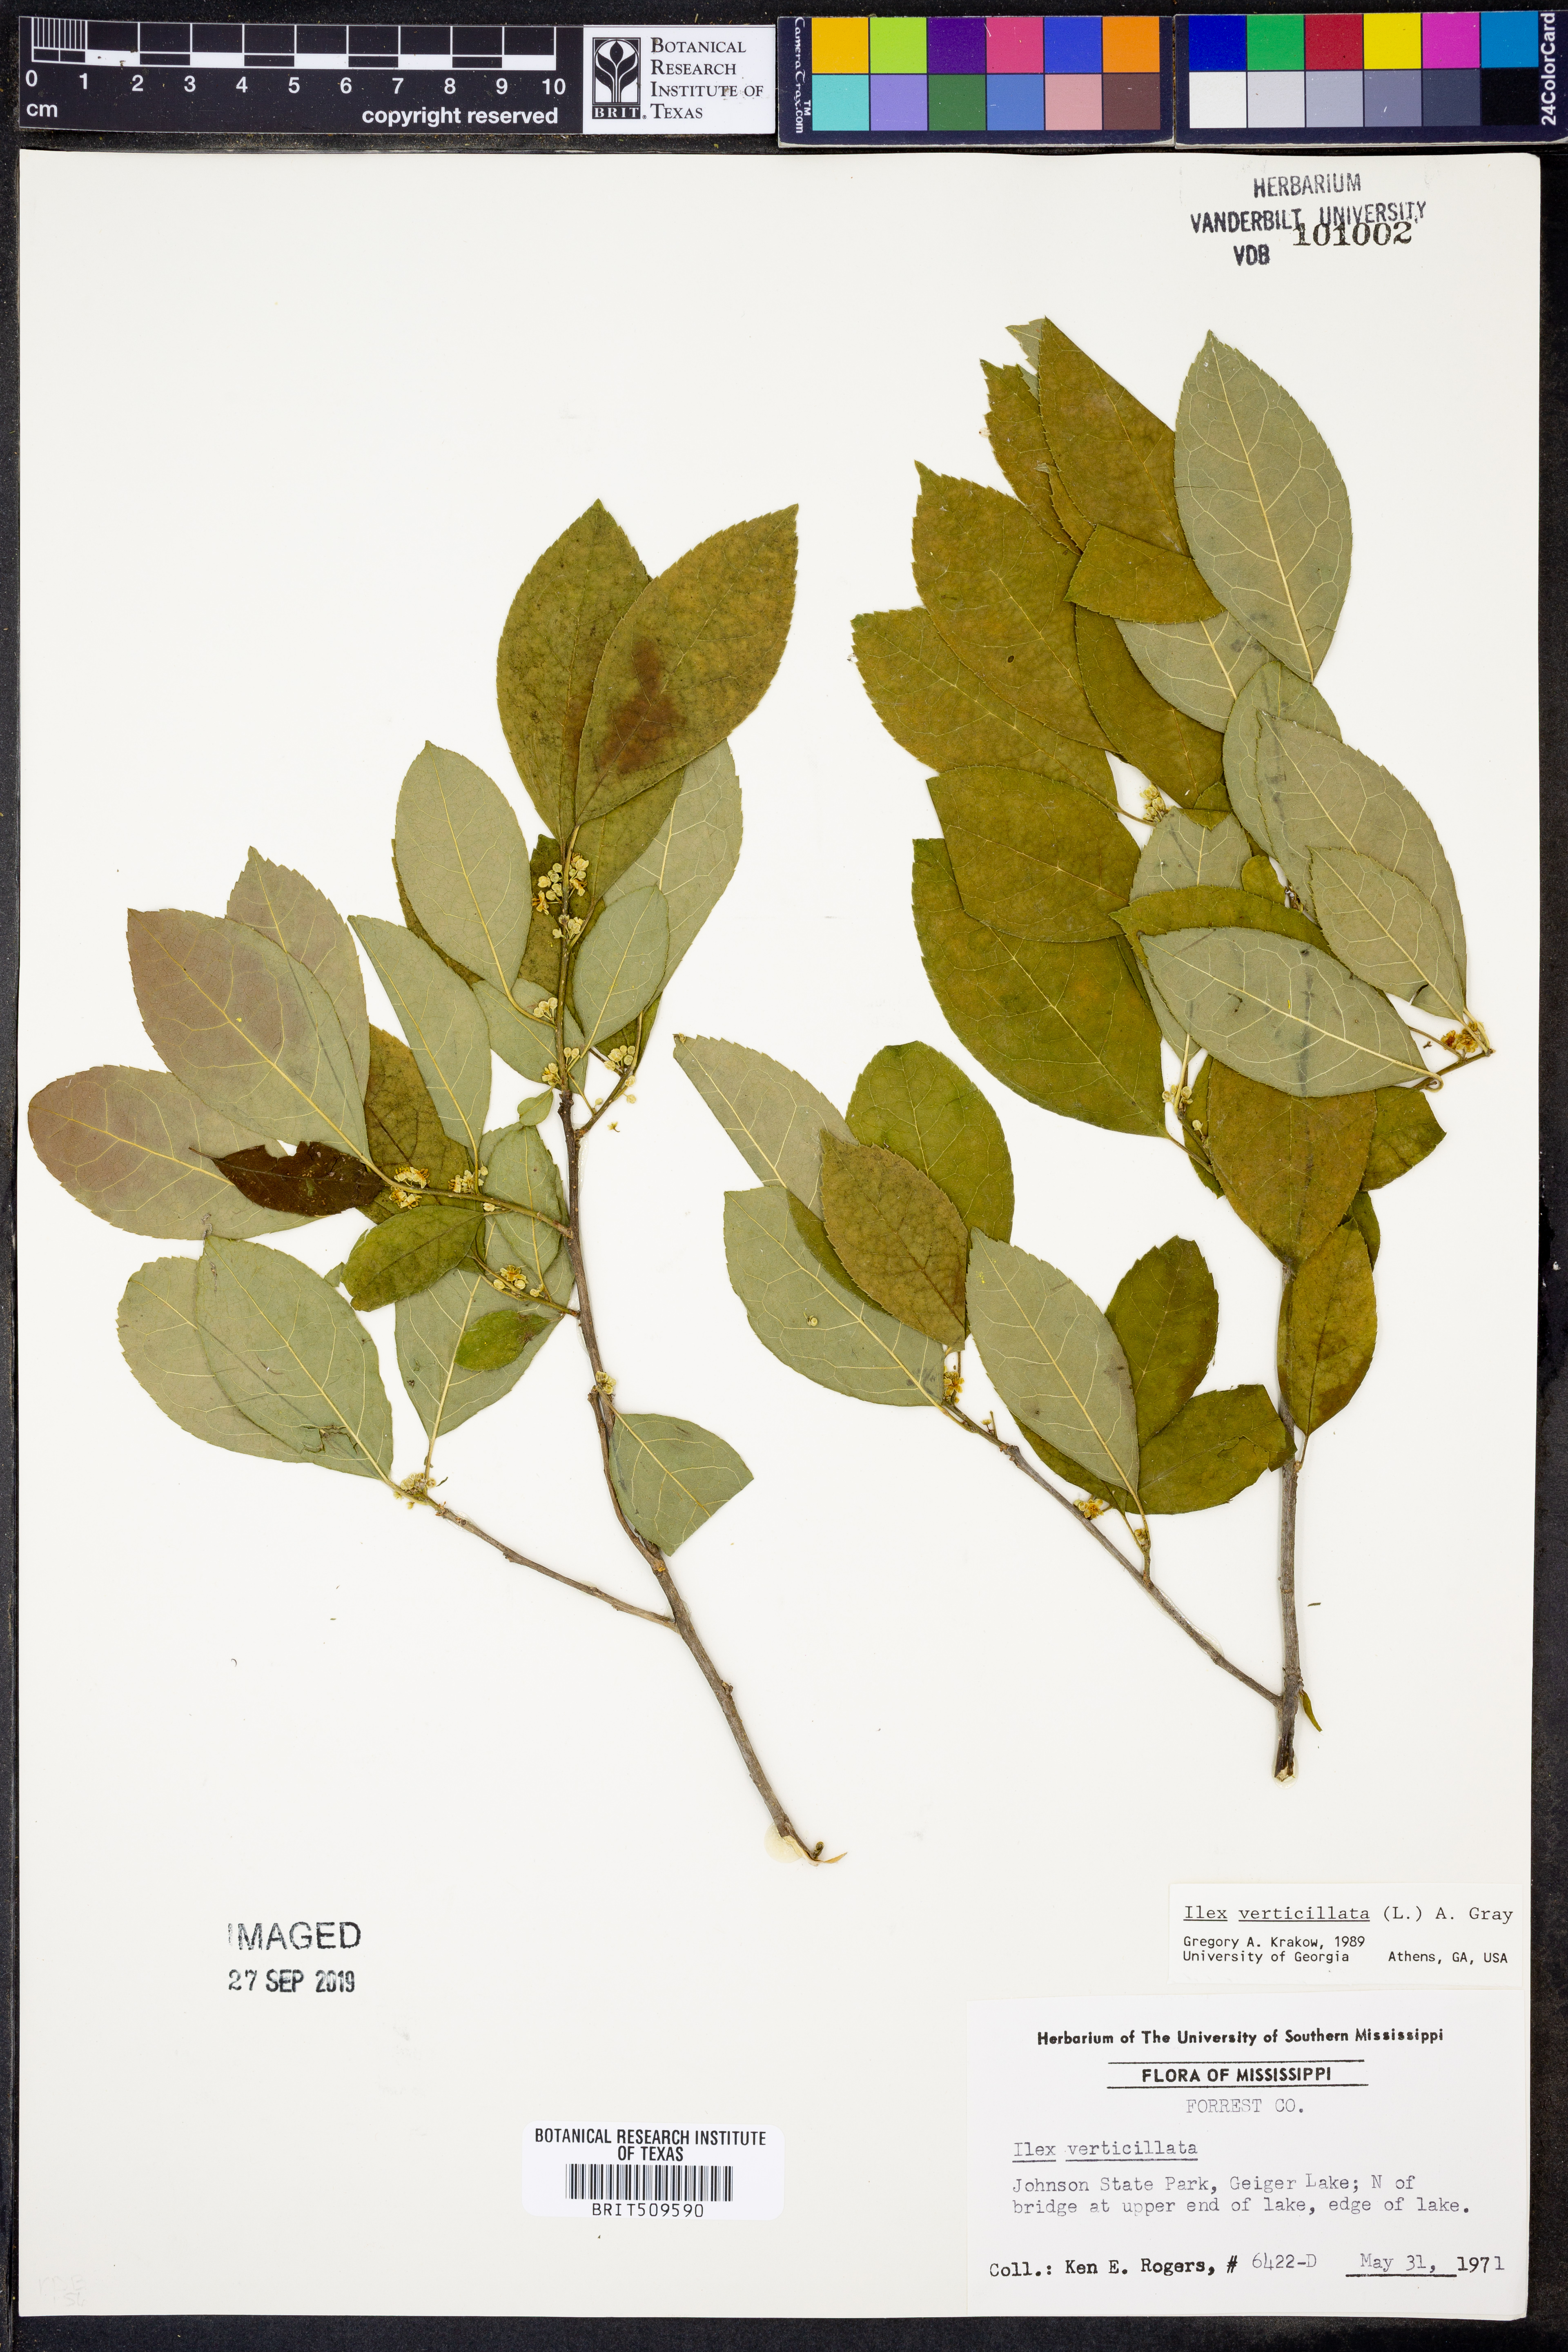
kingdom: Plantae
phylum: Tracheophyta
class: Magnoliopsida
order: Aquifoliales
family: Aquifoliaceae
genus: Ilex
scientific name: Ilex verticillata
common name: Virginia winterberry
